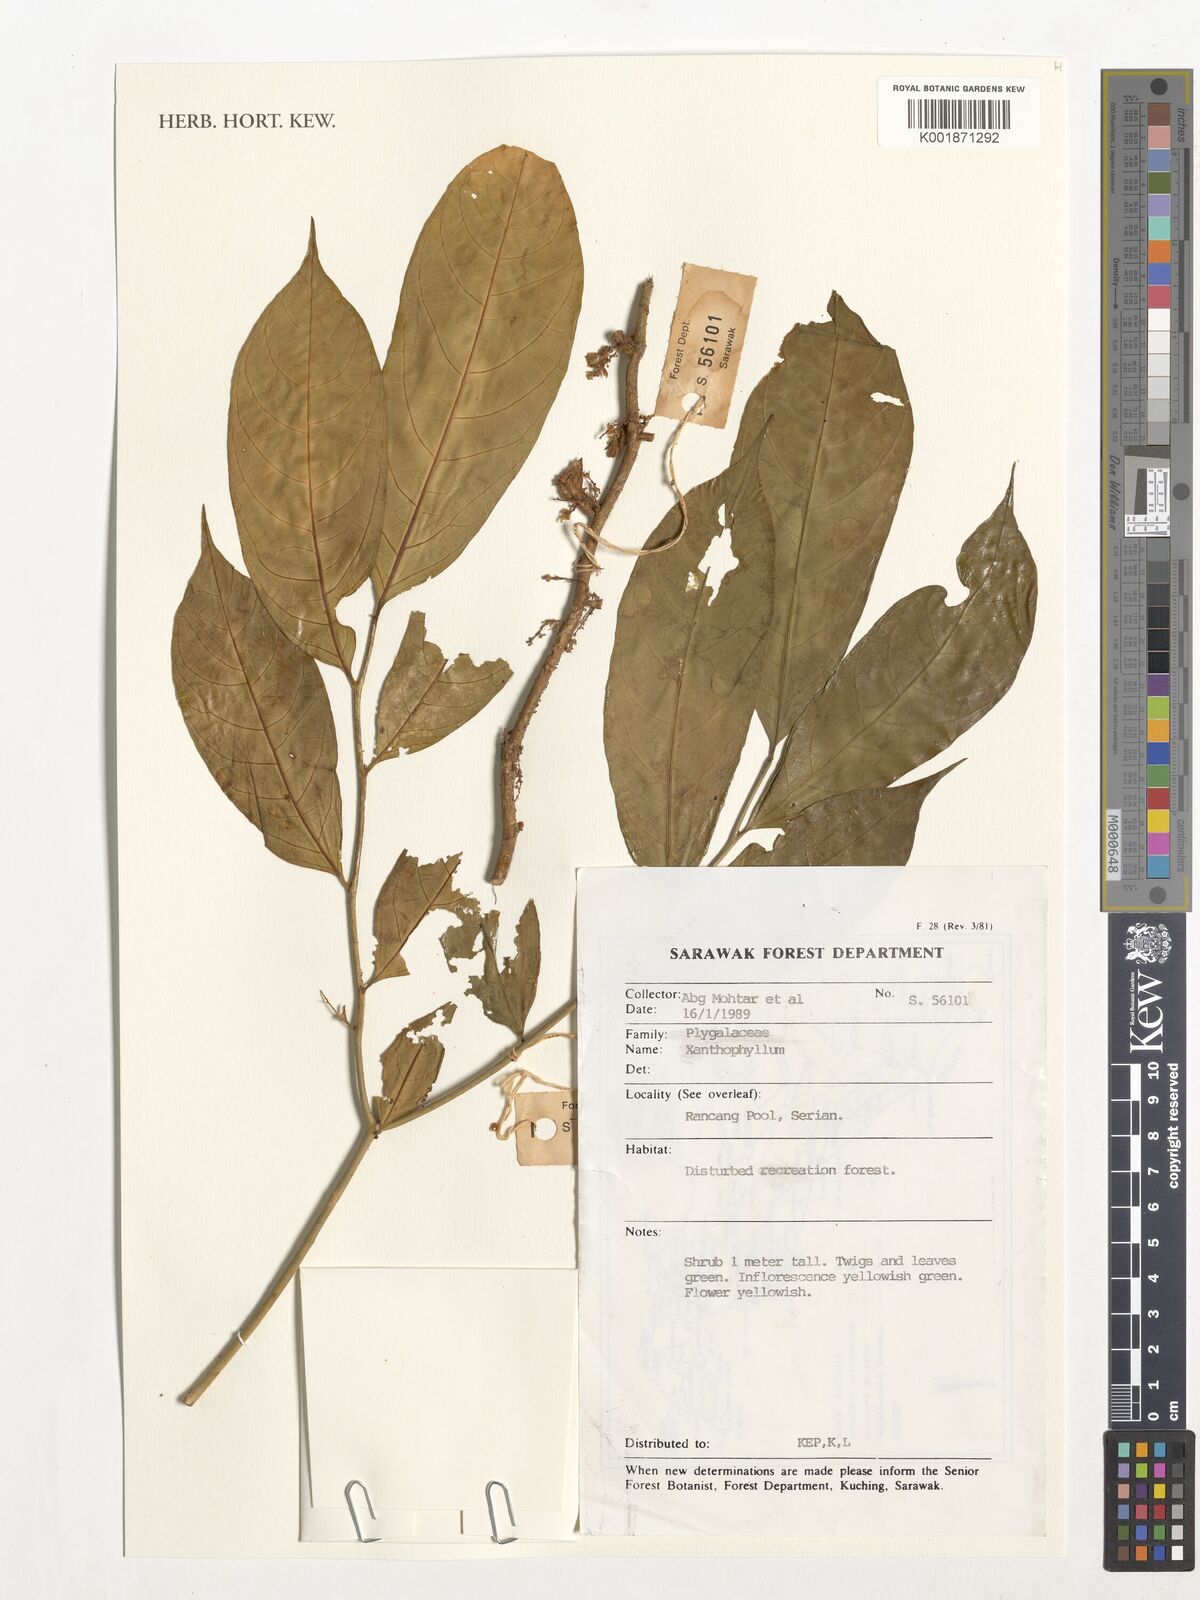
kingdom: Plantae
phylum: Tracheophyta
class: Magnoliopsida
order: Fabales
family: Polygalaceae
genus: Xanthophyllum
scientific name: Xanthophyllum
